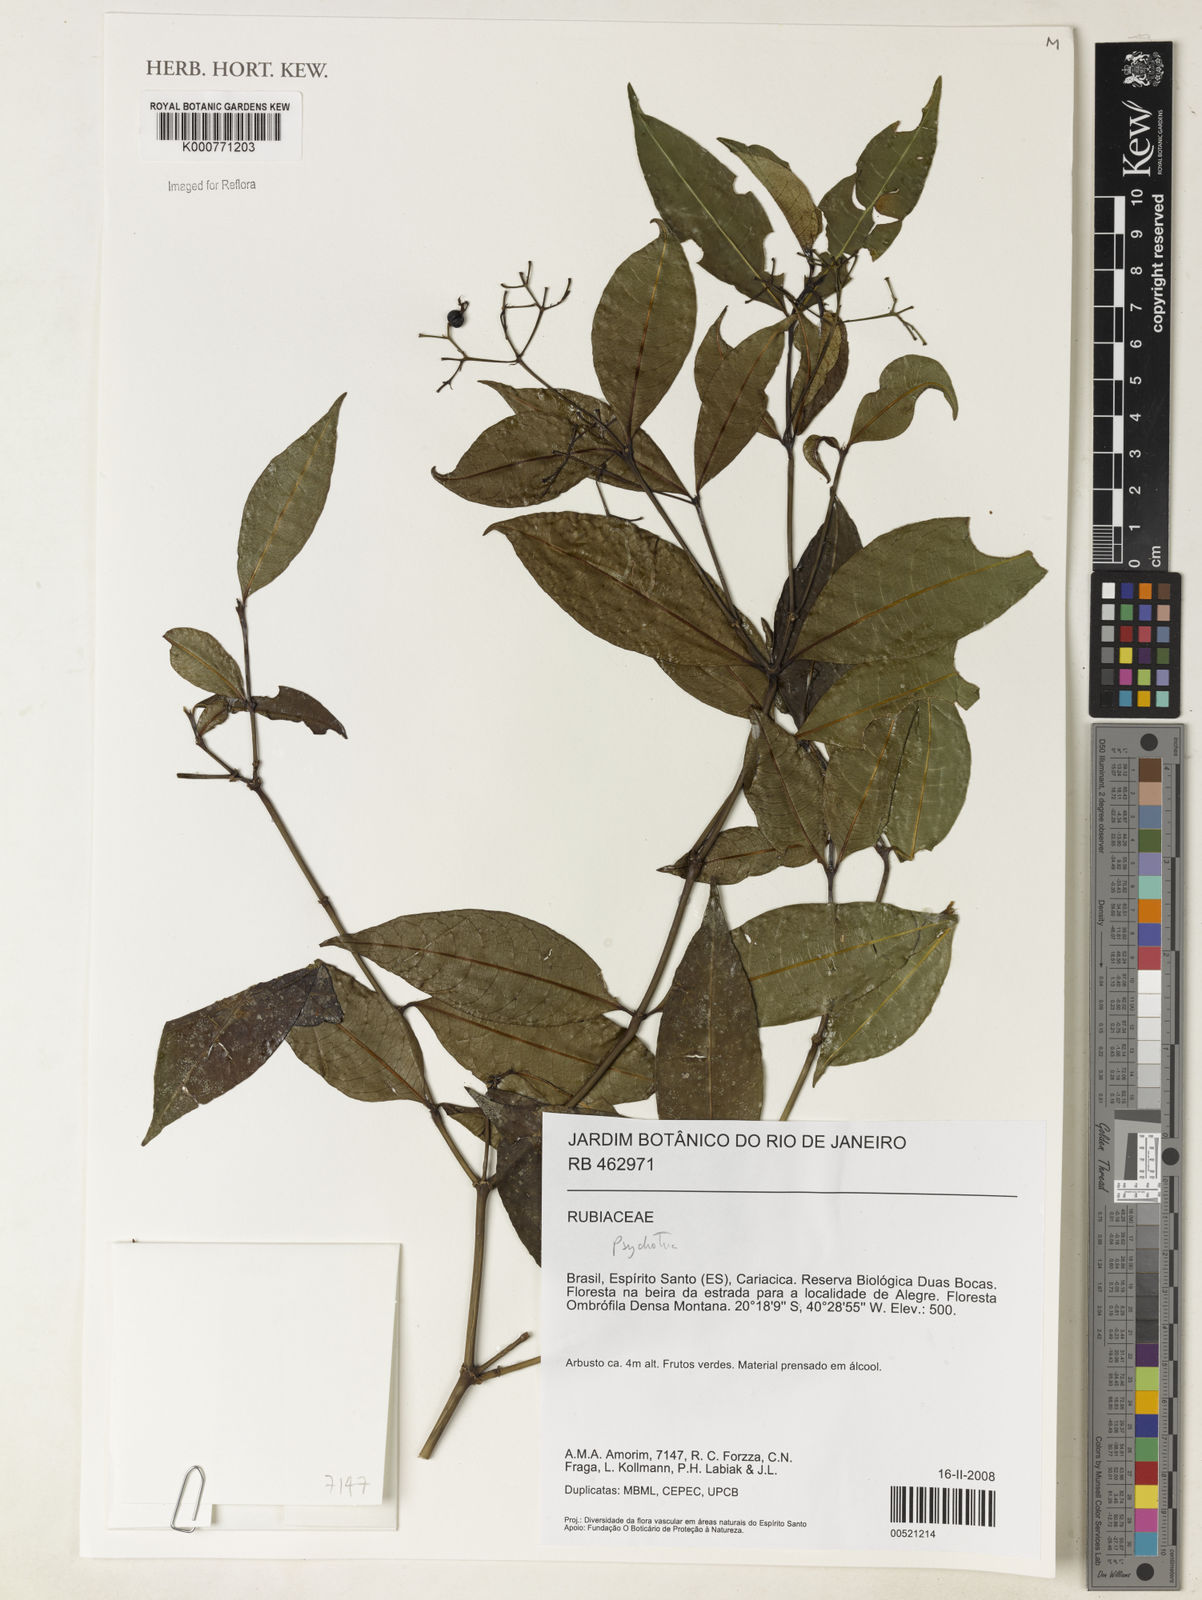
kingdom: Plantae
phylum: Tracheophyta
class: Magnoliopsida
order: Gentianales
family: Rubiaceae
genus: Psychotria
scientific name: Psychotria
